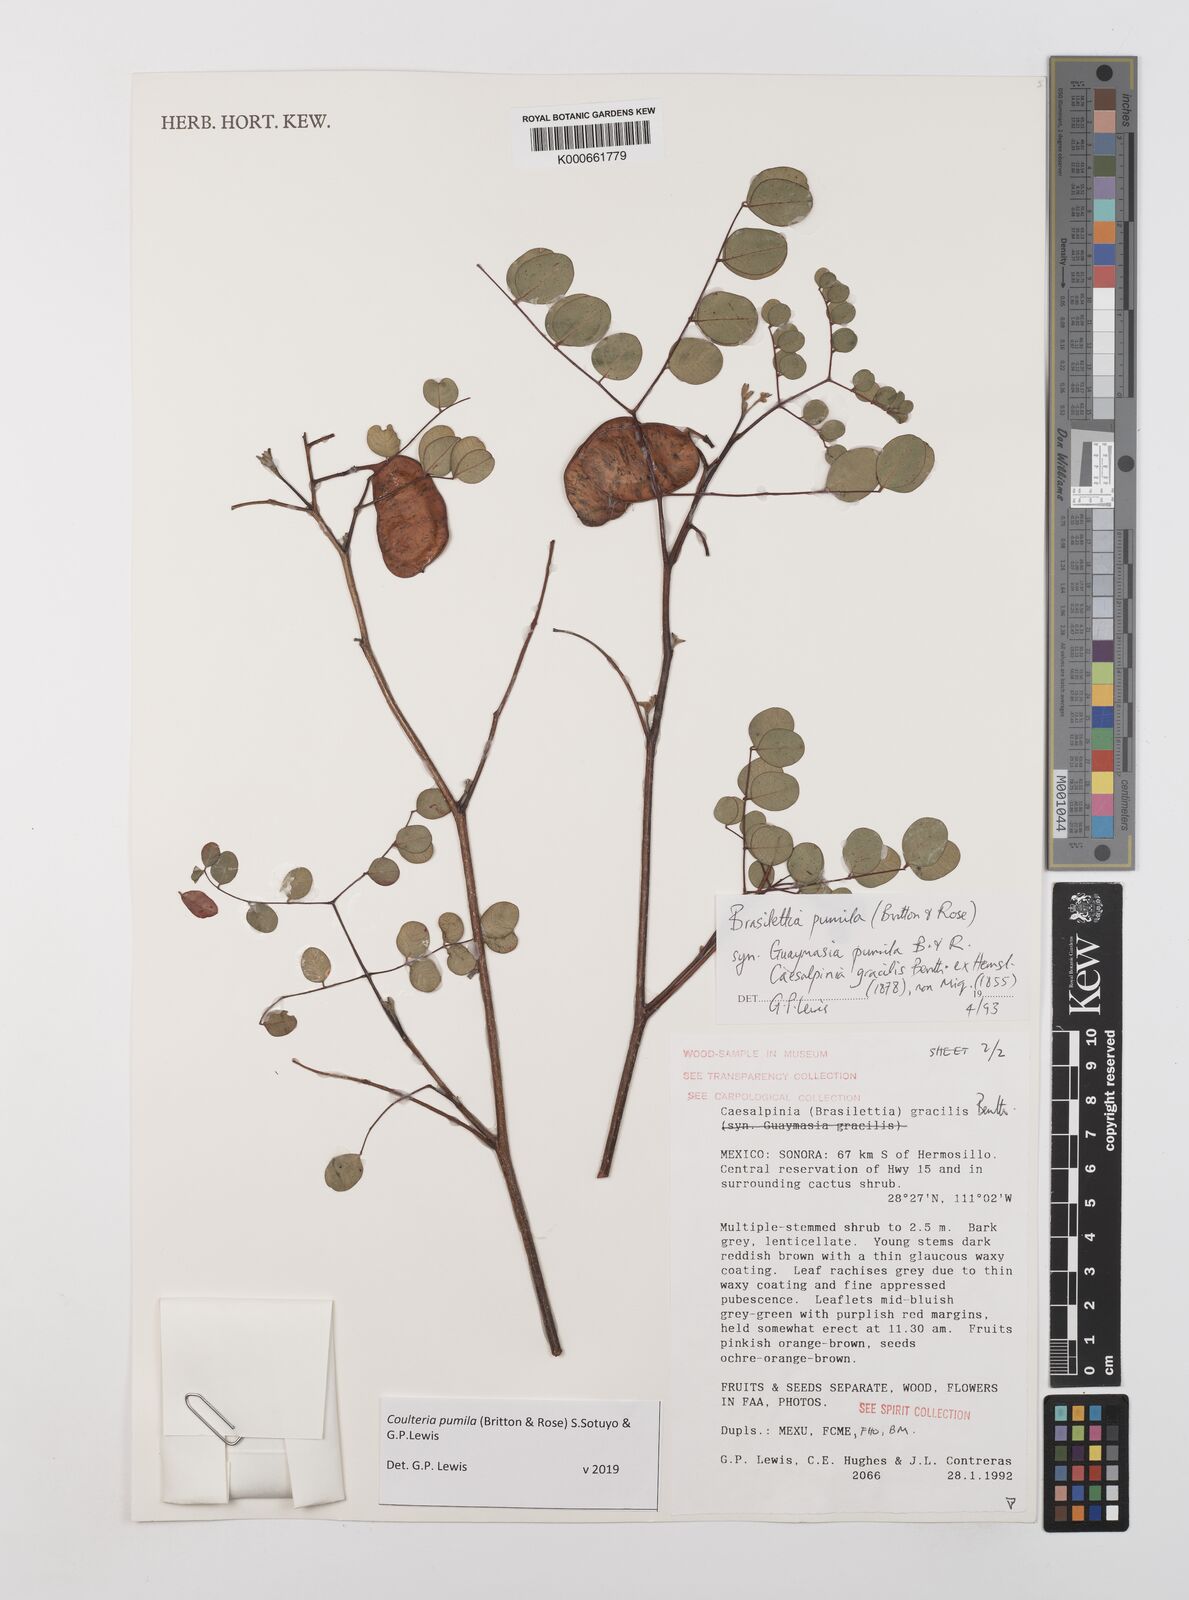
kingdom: Plantae
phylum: Tracheophyta
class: Magnoliopsida
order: Fabales
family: Fabaceae
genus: Coulteria
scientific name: Coulteria
